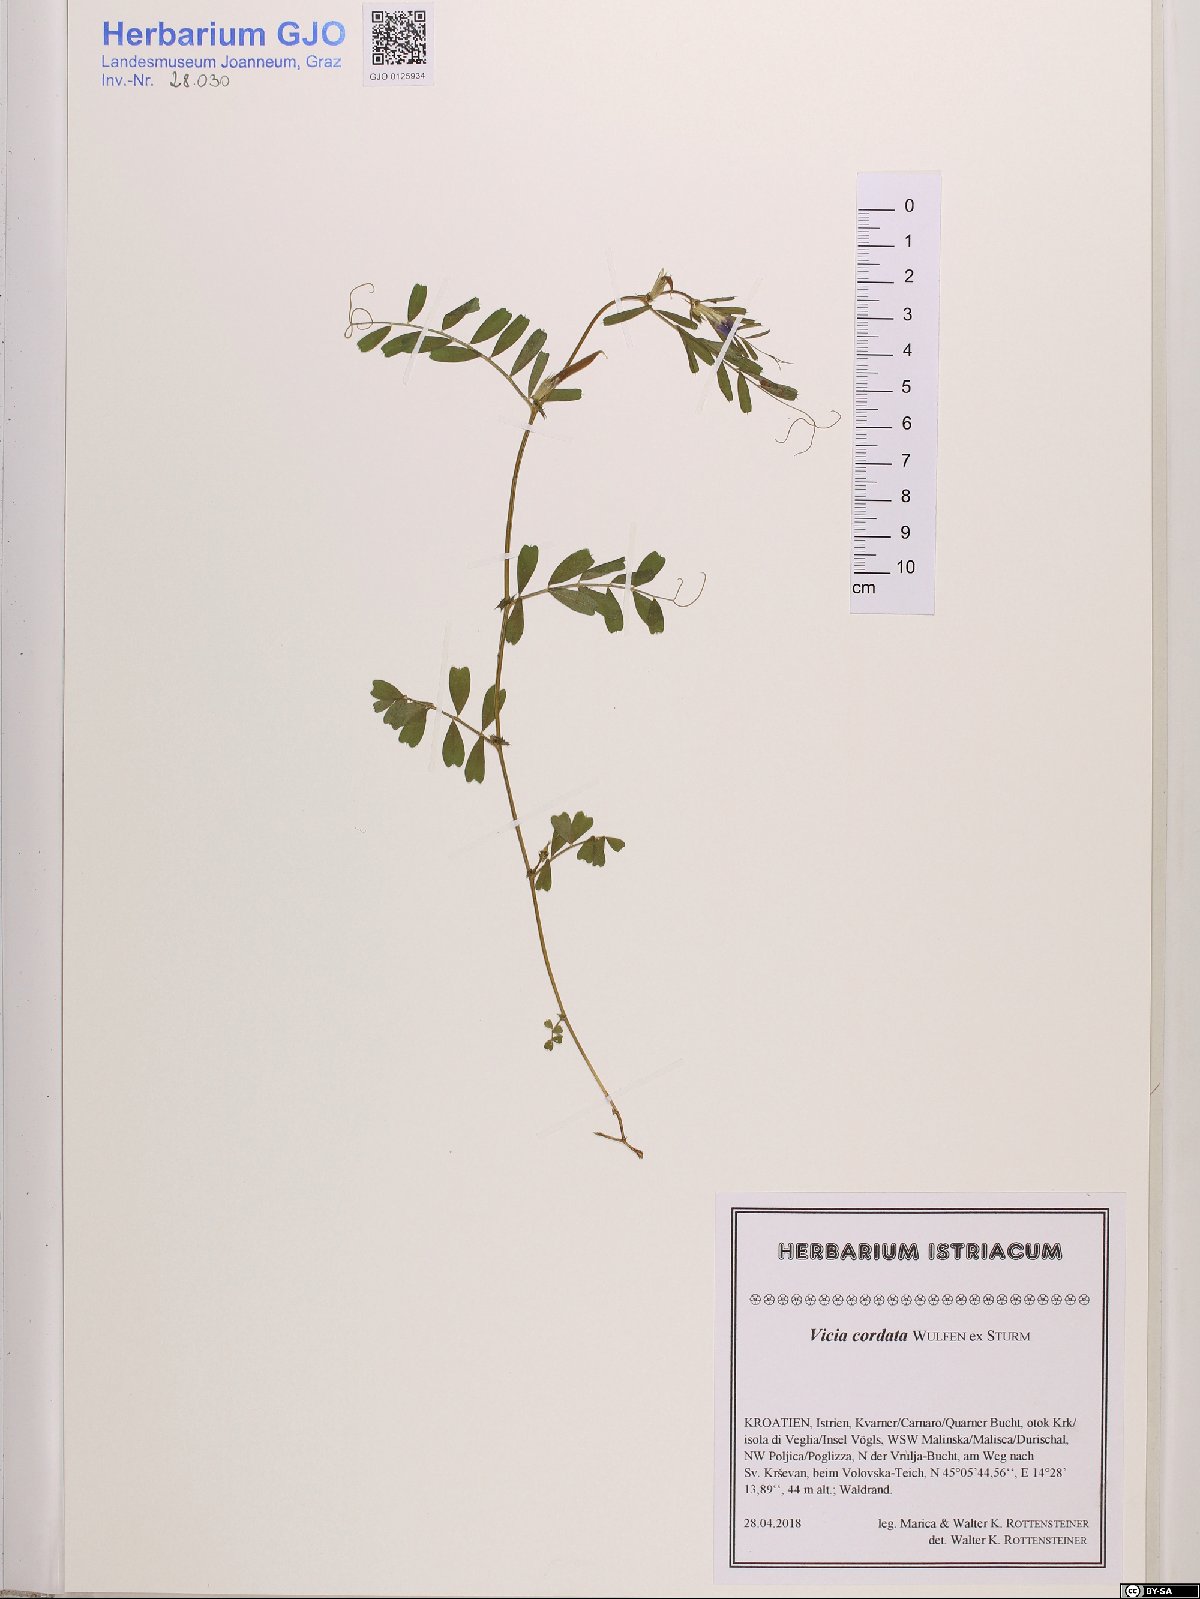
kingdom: Plantae
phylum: Tracheophyta
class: Magnoliopsida
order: Fabales
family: Fabaceae
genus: Vicia
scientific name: Vicia sativa
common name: Garden vetch
